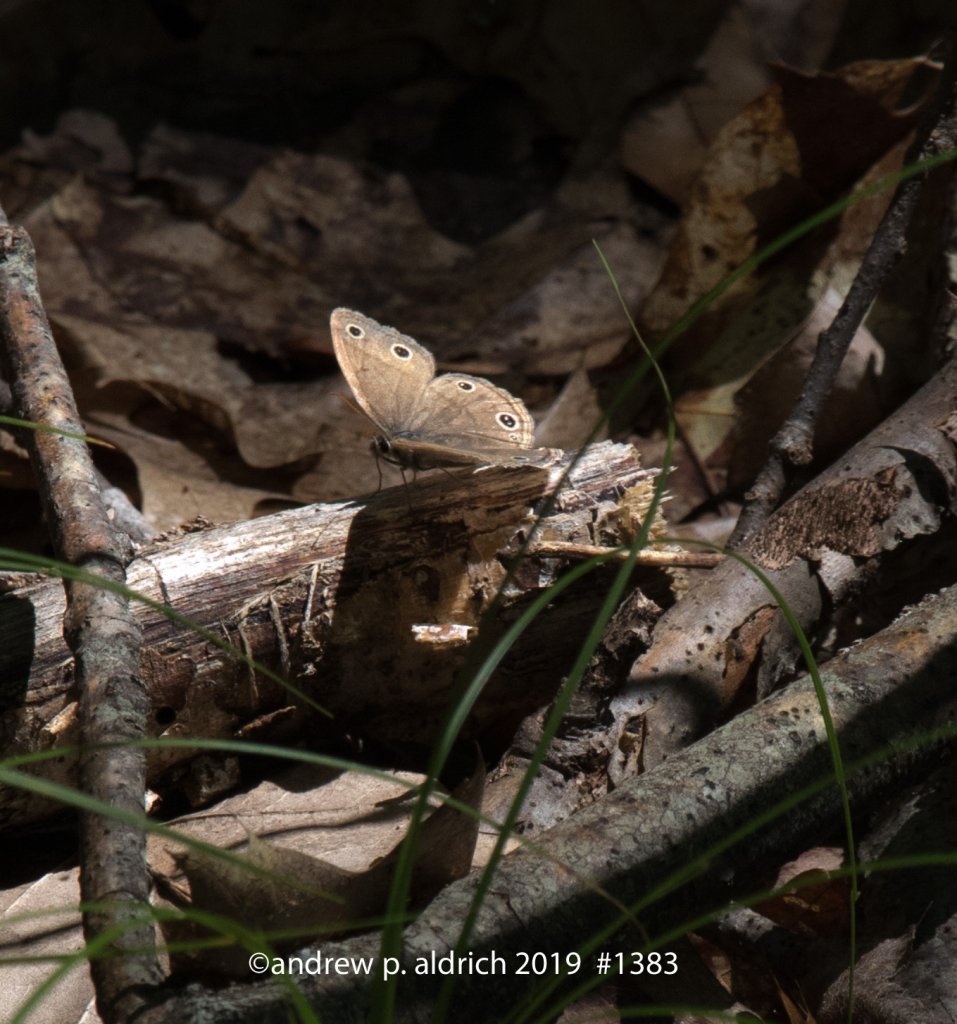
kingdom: Animalia
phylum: Arthropoda
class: Insecta
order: Lepidoptera
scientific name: Lepidoptera
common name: Butterflies
